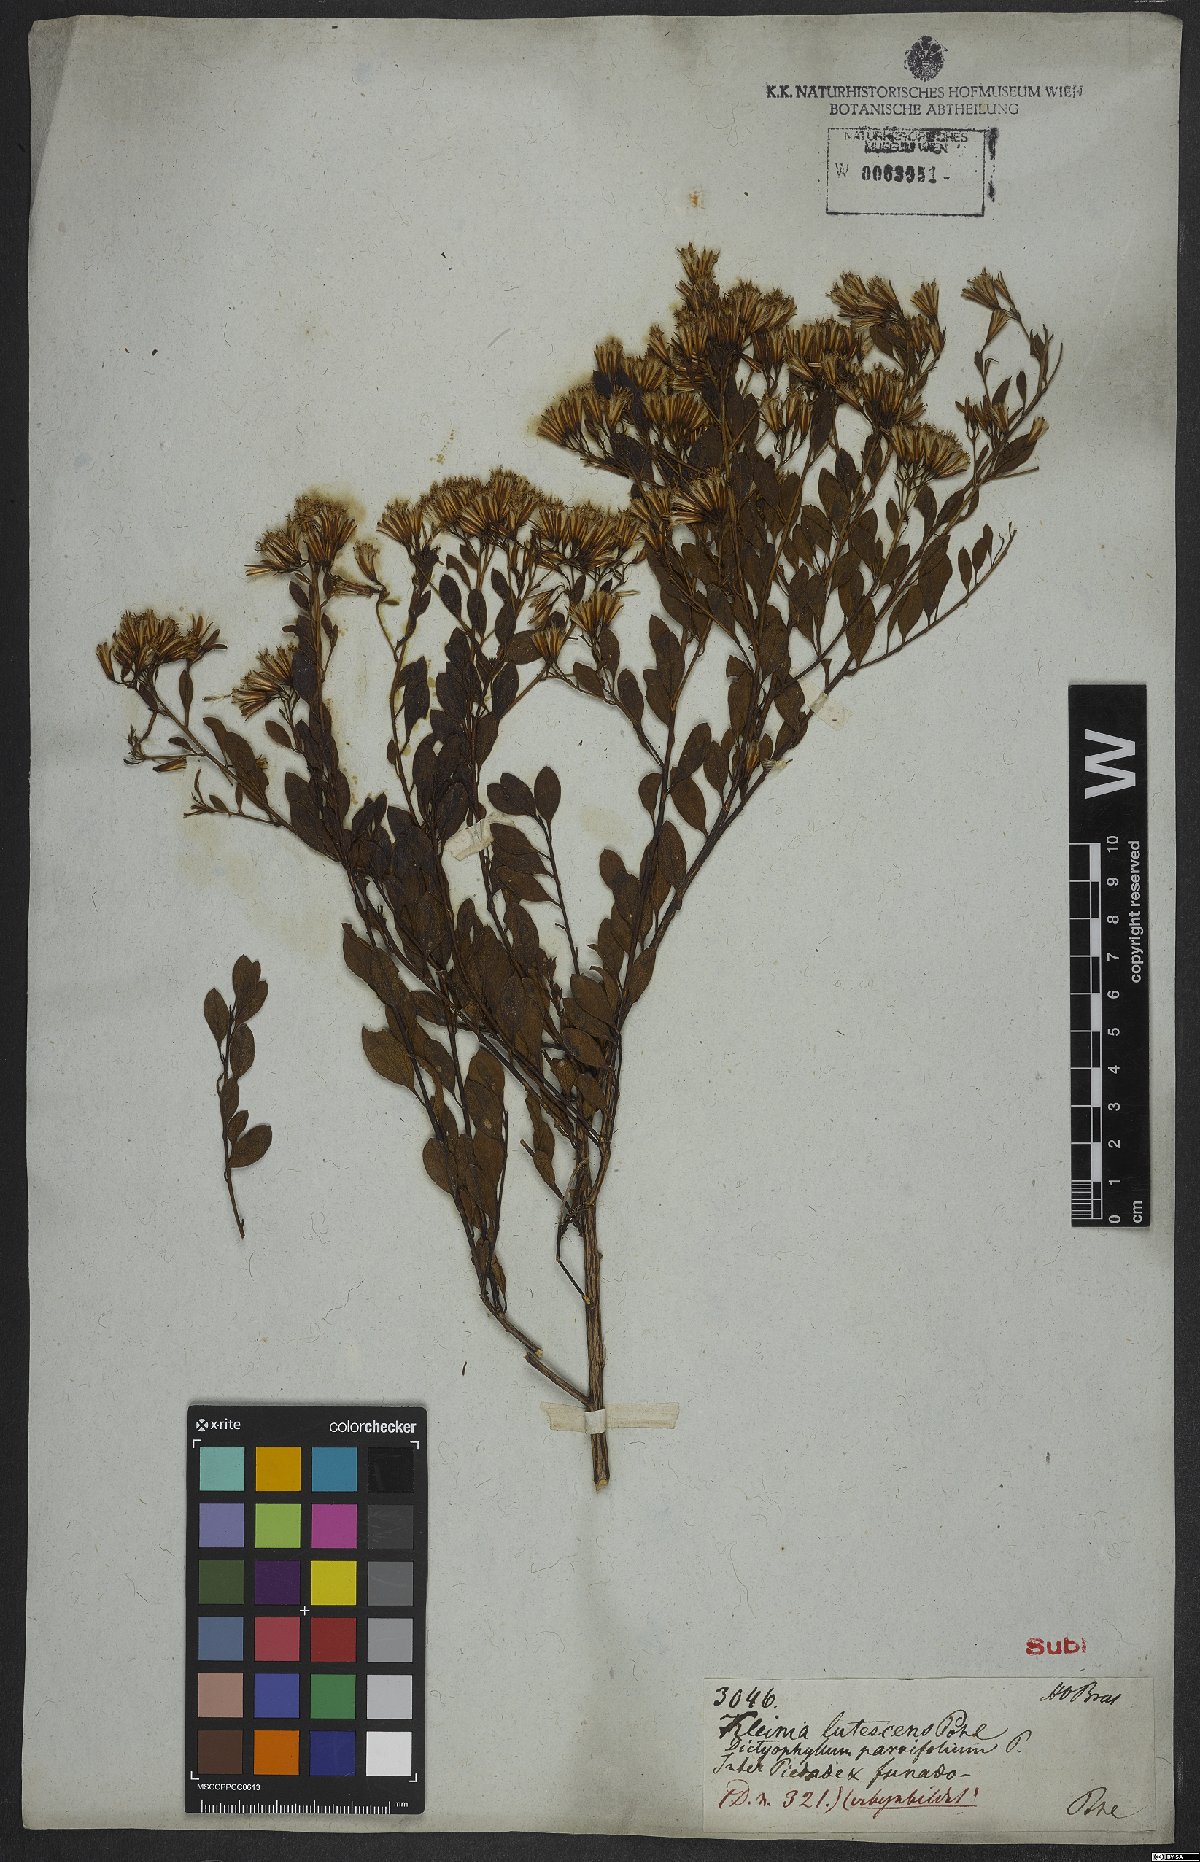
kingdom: Plantae
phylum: Tracheophyta
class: Magnoliopsida
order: Asterales
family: Asteraceae
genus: Trixis
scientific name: Trixis
